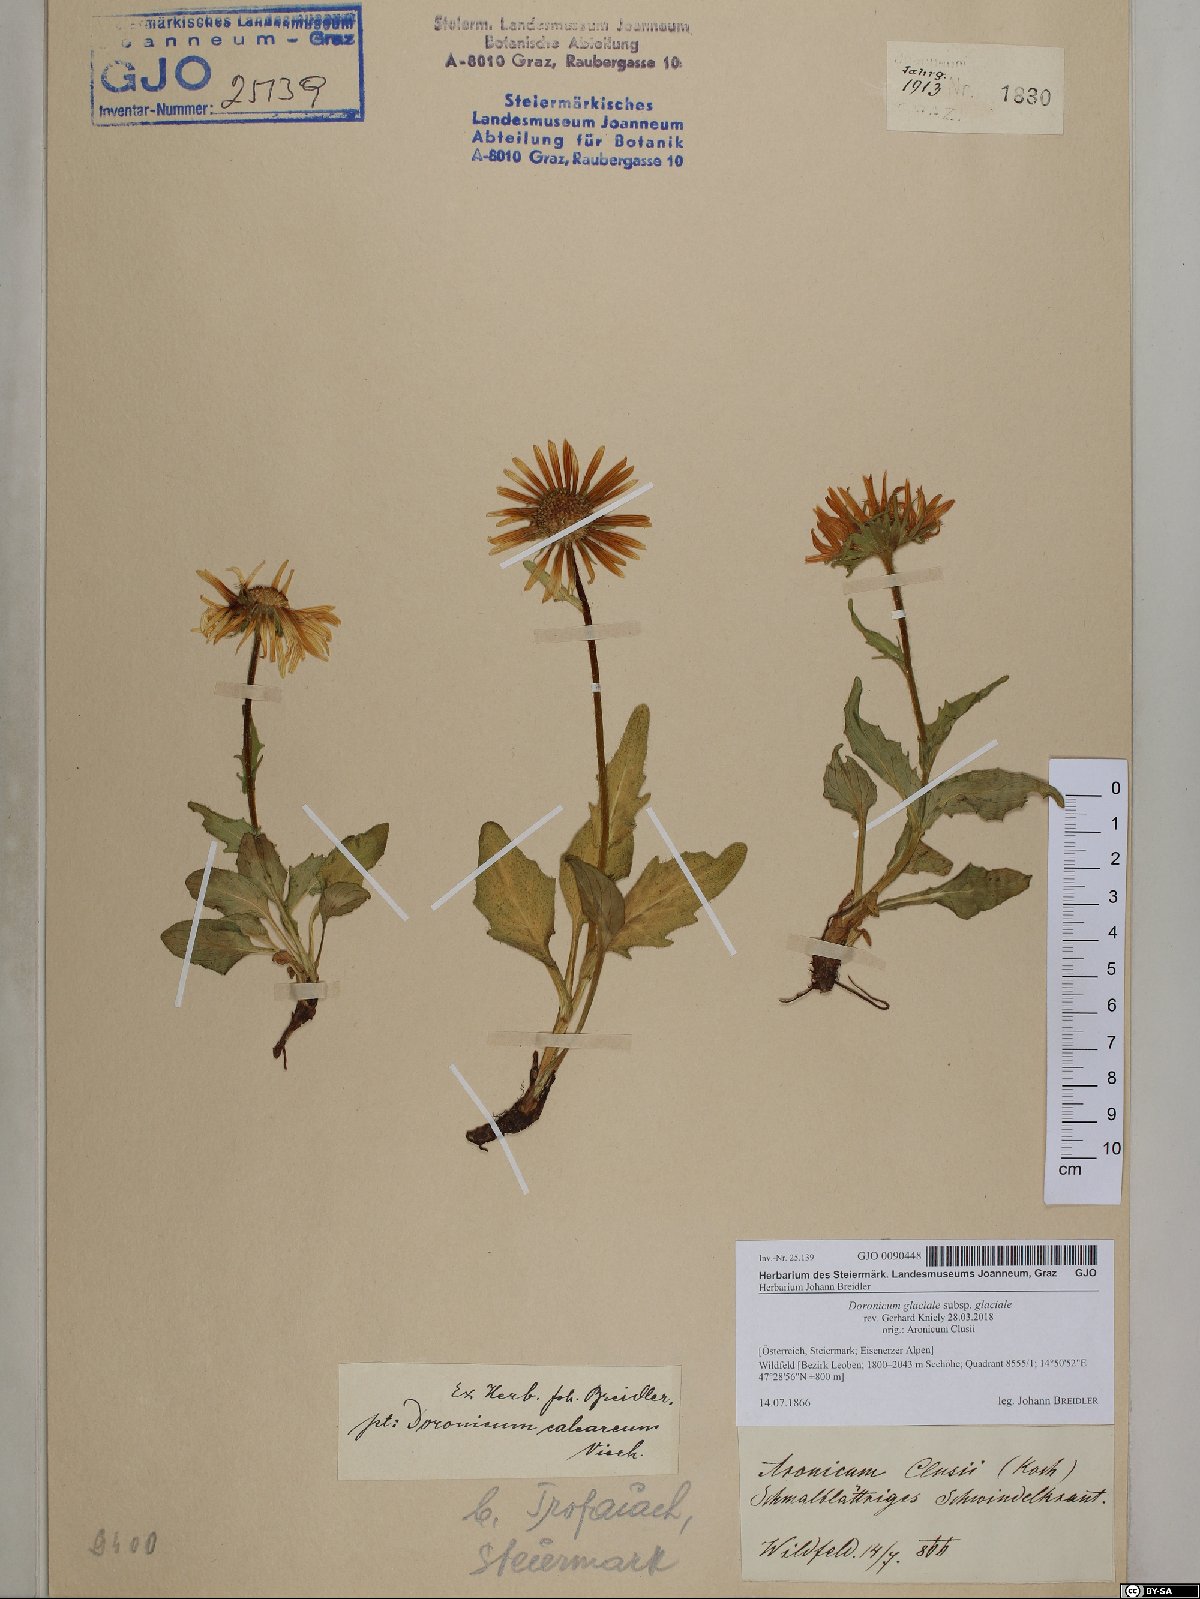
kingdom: Plantae
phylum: Tracheophyta
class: Magnoliopsida
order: Asterales
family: Asteraceae
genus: Doronicum
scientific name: Doronicum glaciale
